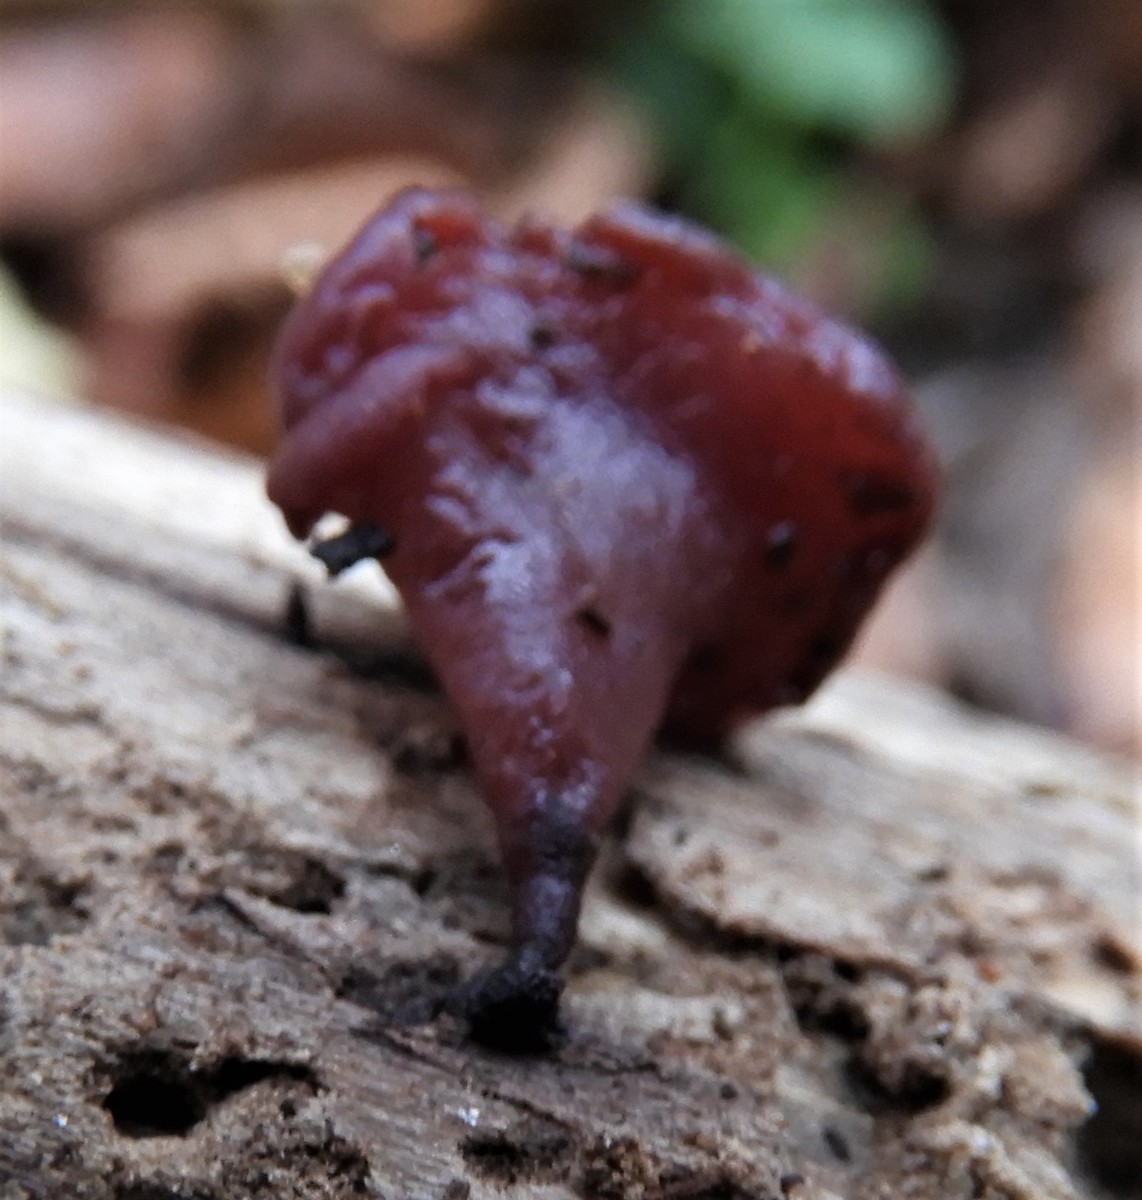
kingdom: Fungi
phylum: Ascomycota
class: Leotiomycetes
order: Helotiales
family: Gelatinodiscaceae
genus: Ascocoryne
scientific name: Ascocoryne
